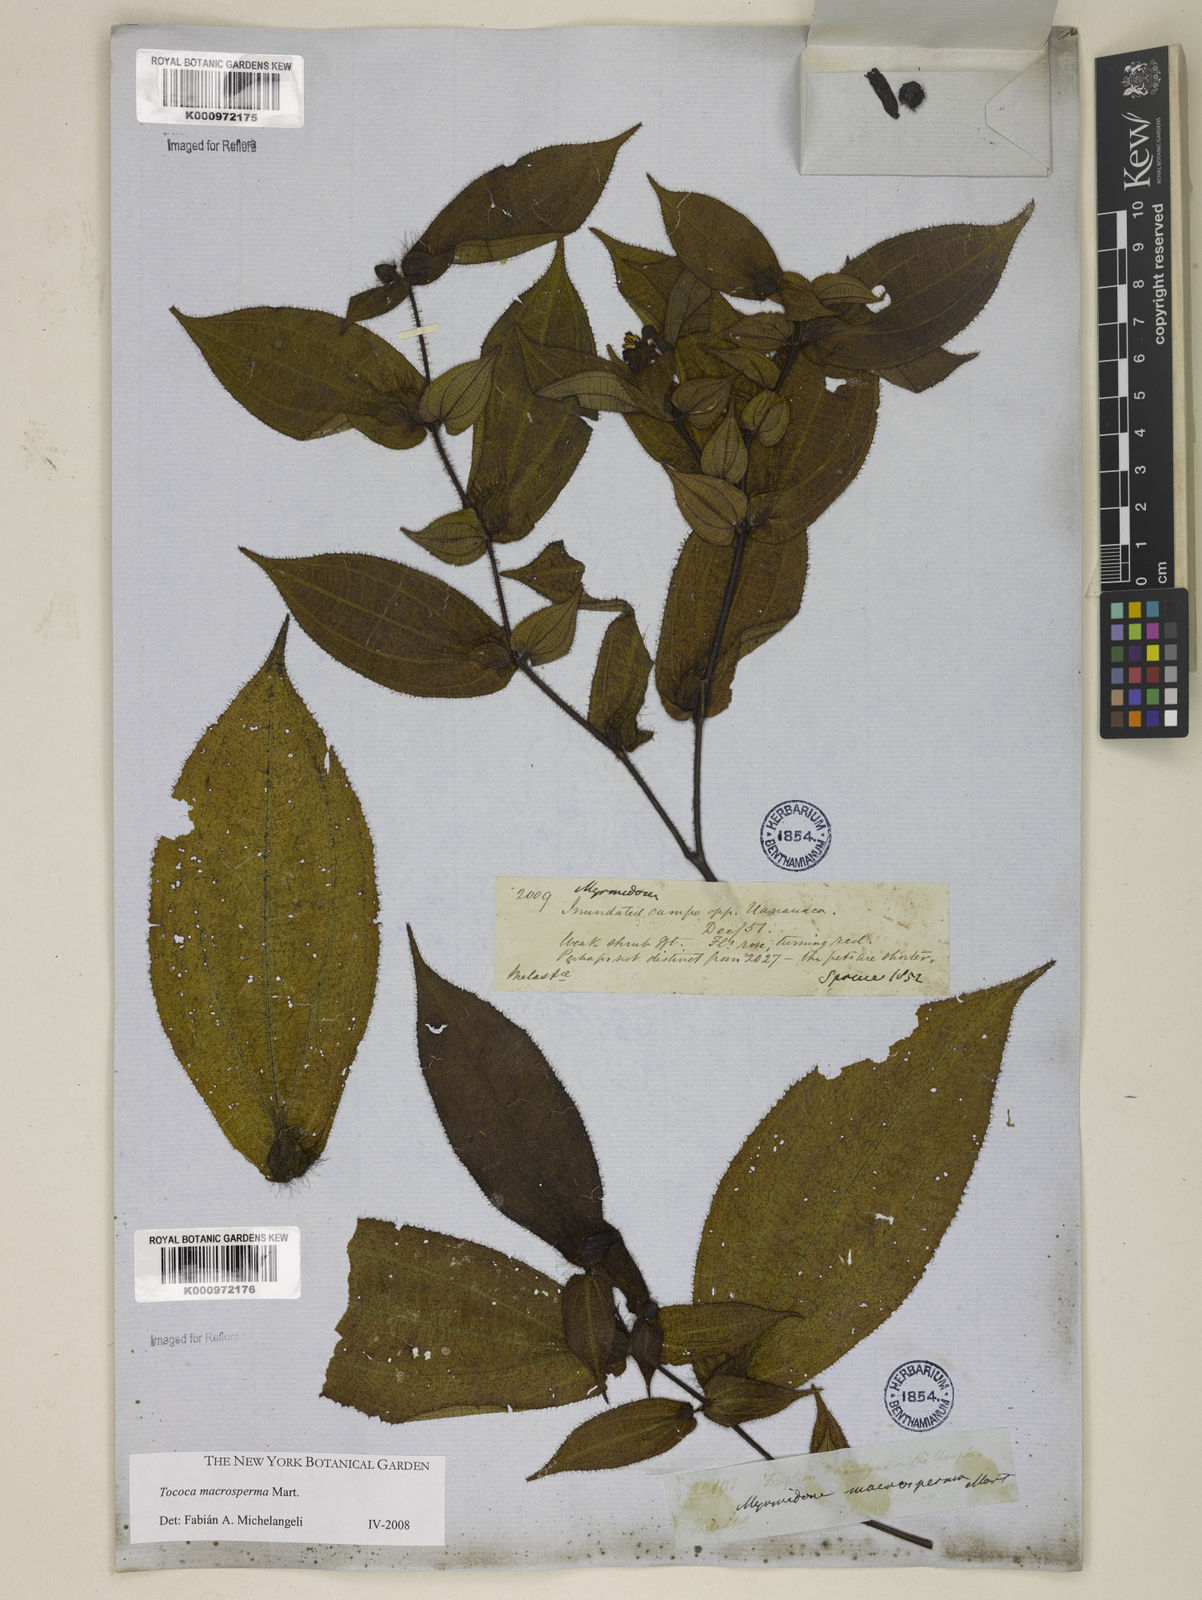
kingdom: Plantae
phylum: Tracheophyta
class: Magnoliopsida
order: Myrtales
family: Melastomataceae
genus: Miconia
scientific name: Miconia macrosperma
